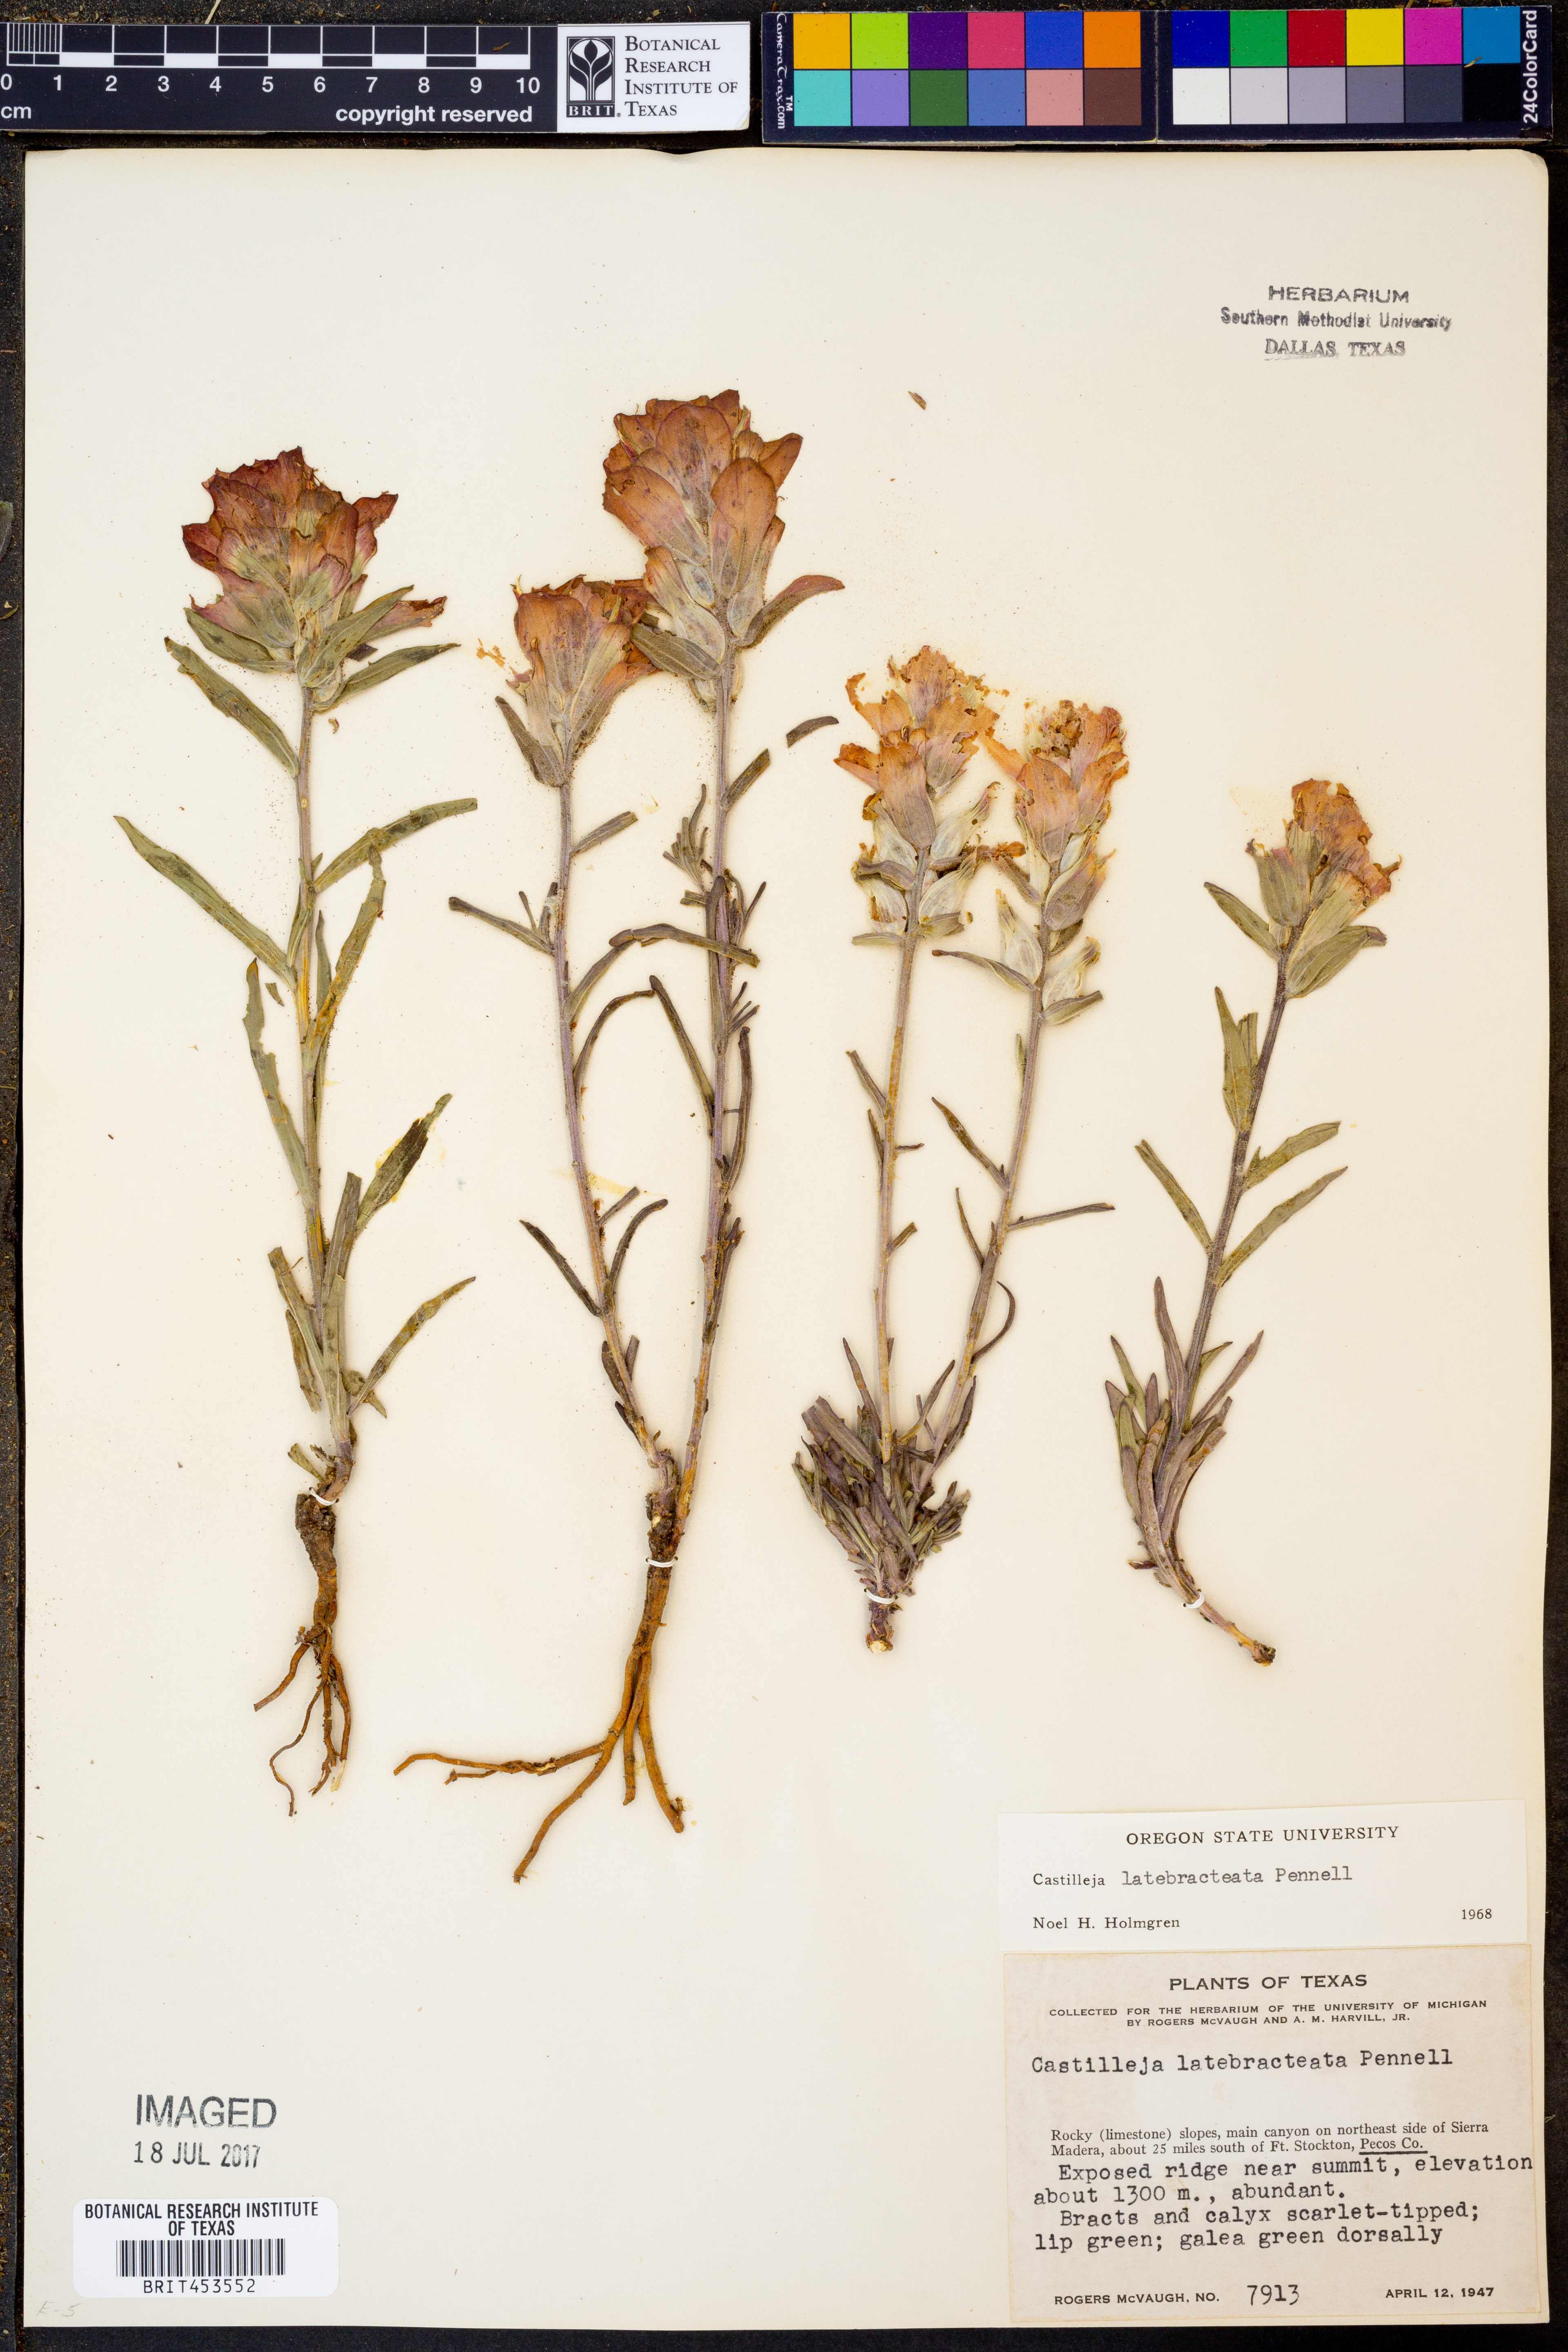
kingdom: Plantae
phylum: Tracheophyta
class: Magnoliopsida
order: Lamiales
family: Orobanchaceae
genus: Castilleja
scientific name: Castilleja rigida
